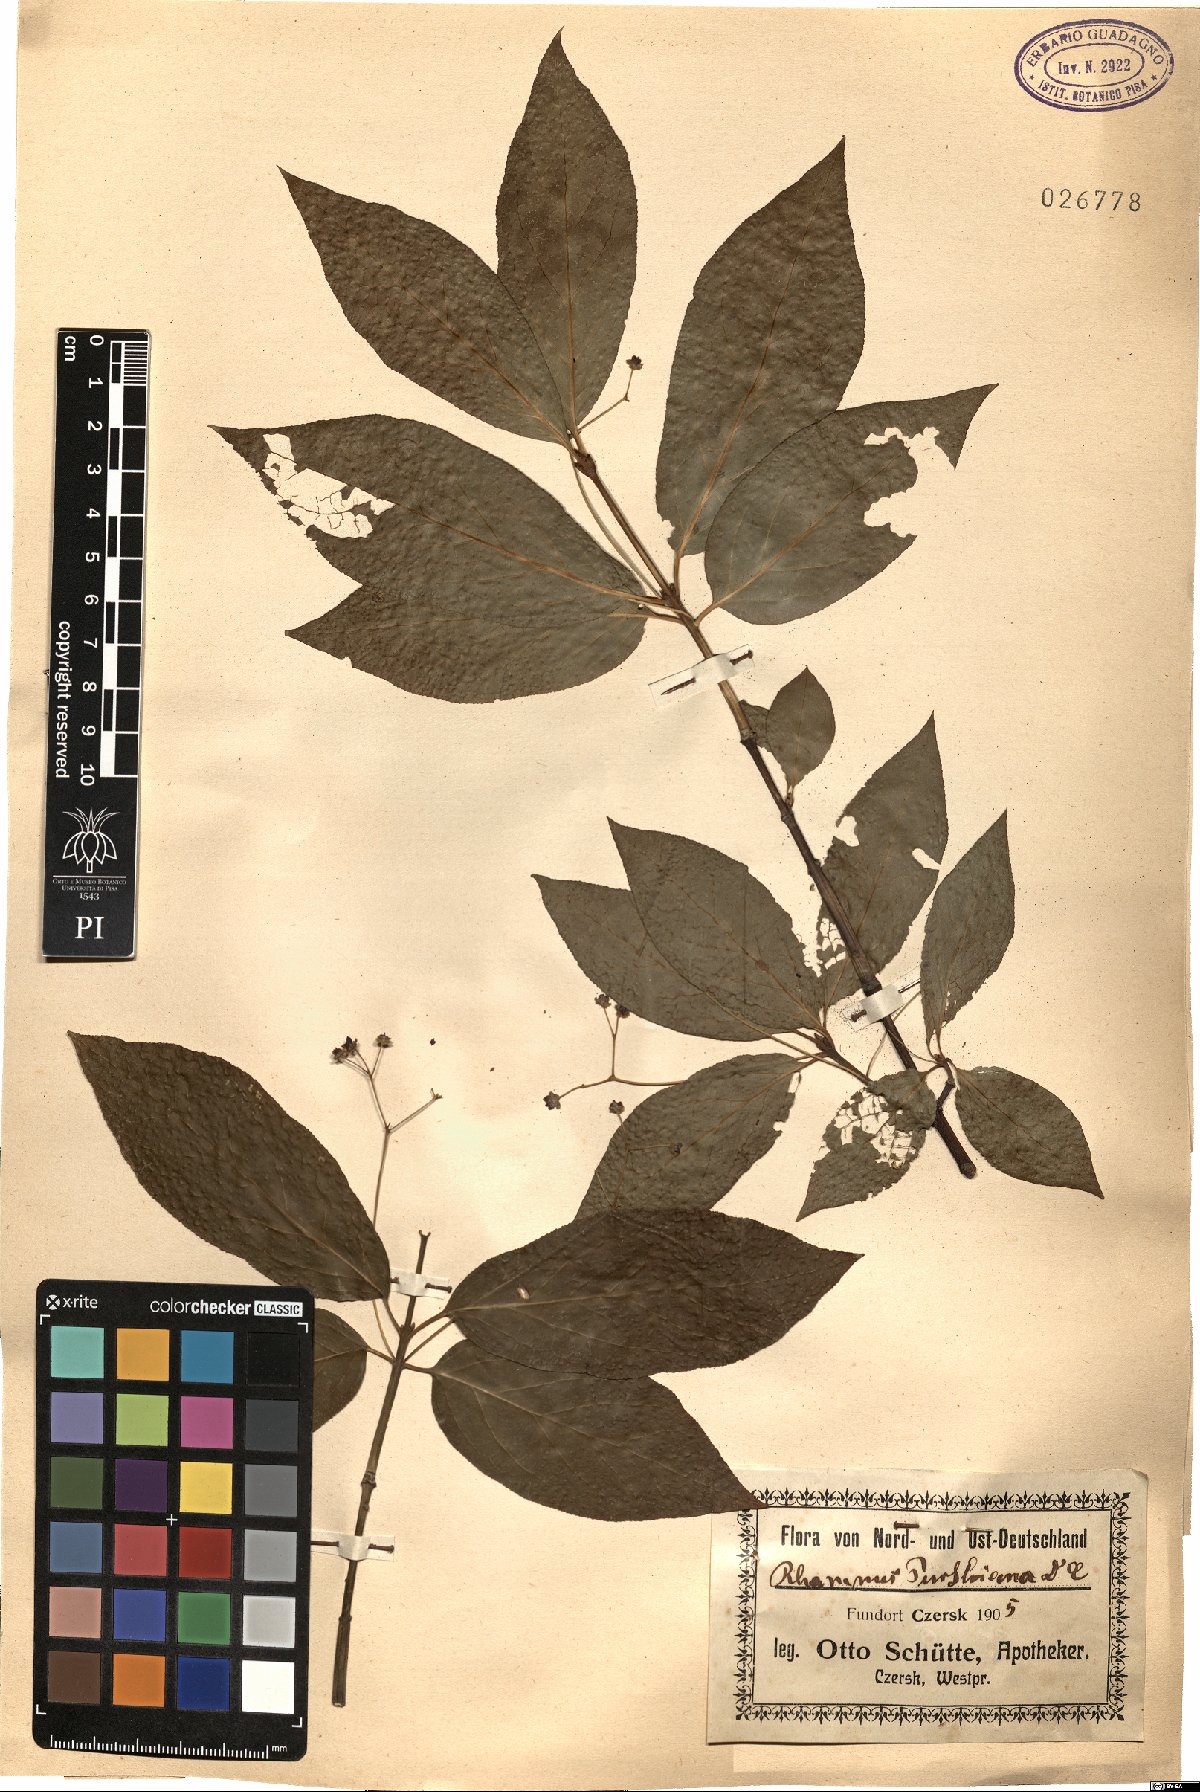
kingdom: Plantae
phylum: Tracheophyta
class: Magnoliopsida
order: Rosales
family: Rhamnaceae
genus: Frangula
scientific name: Frangula purshiana
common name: Cascara buckthorn
